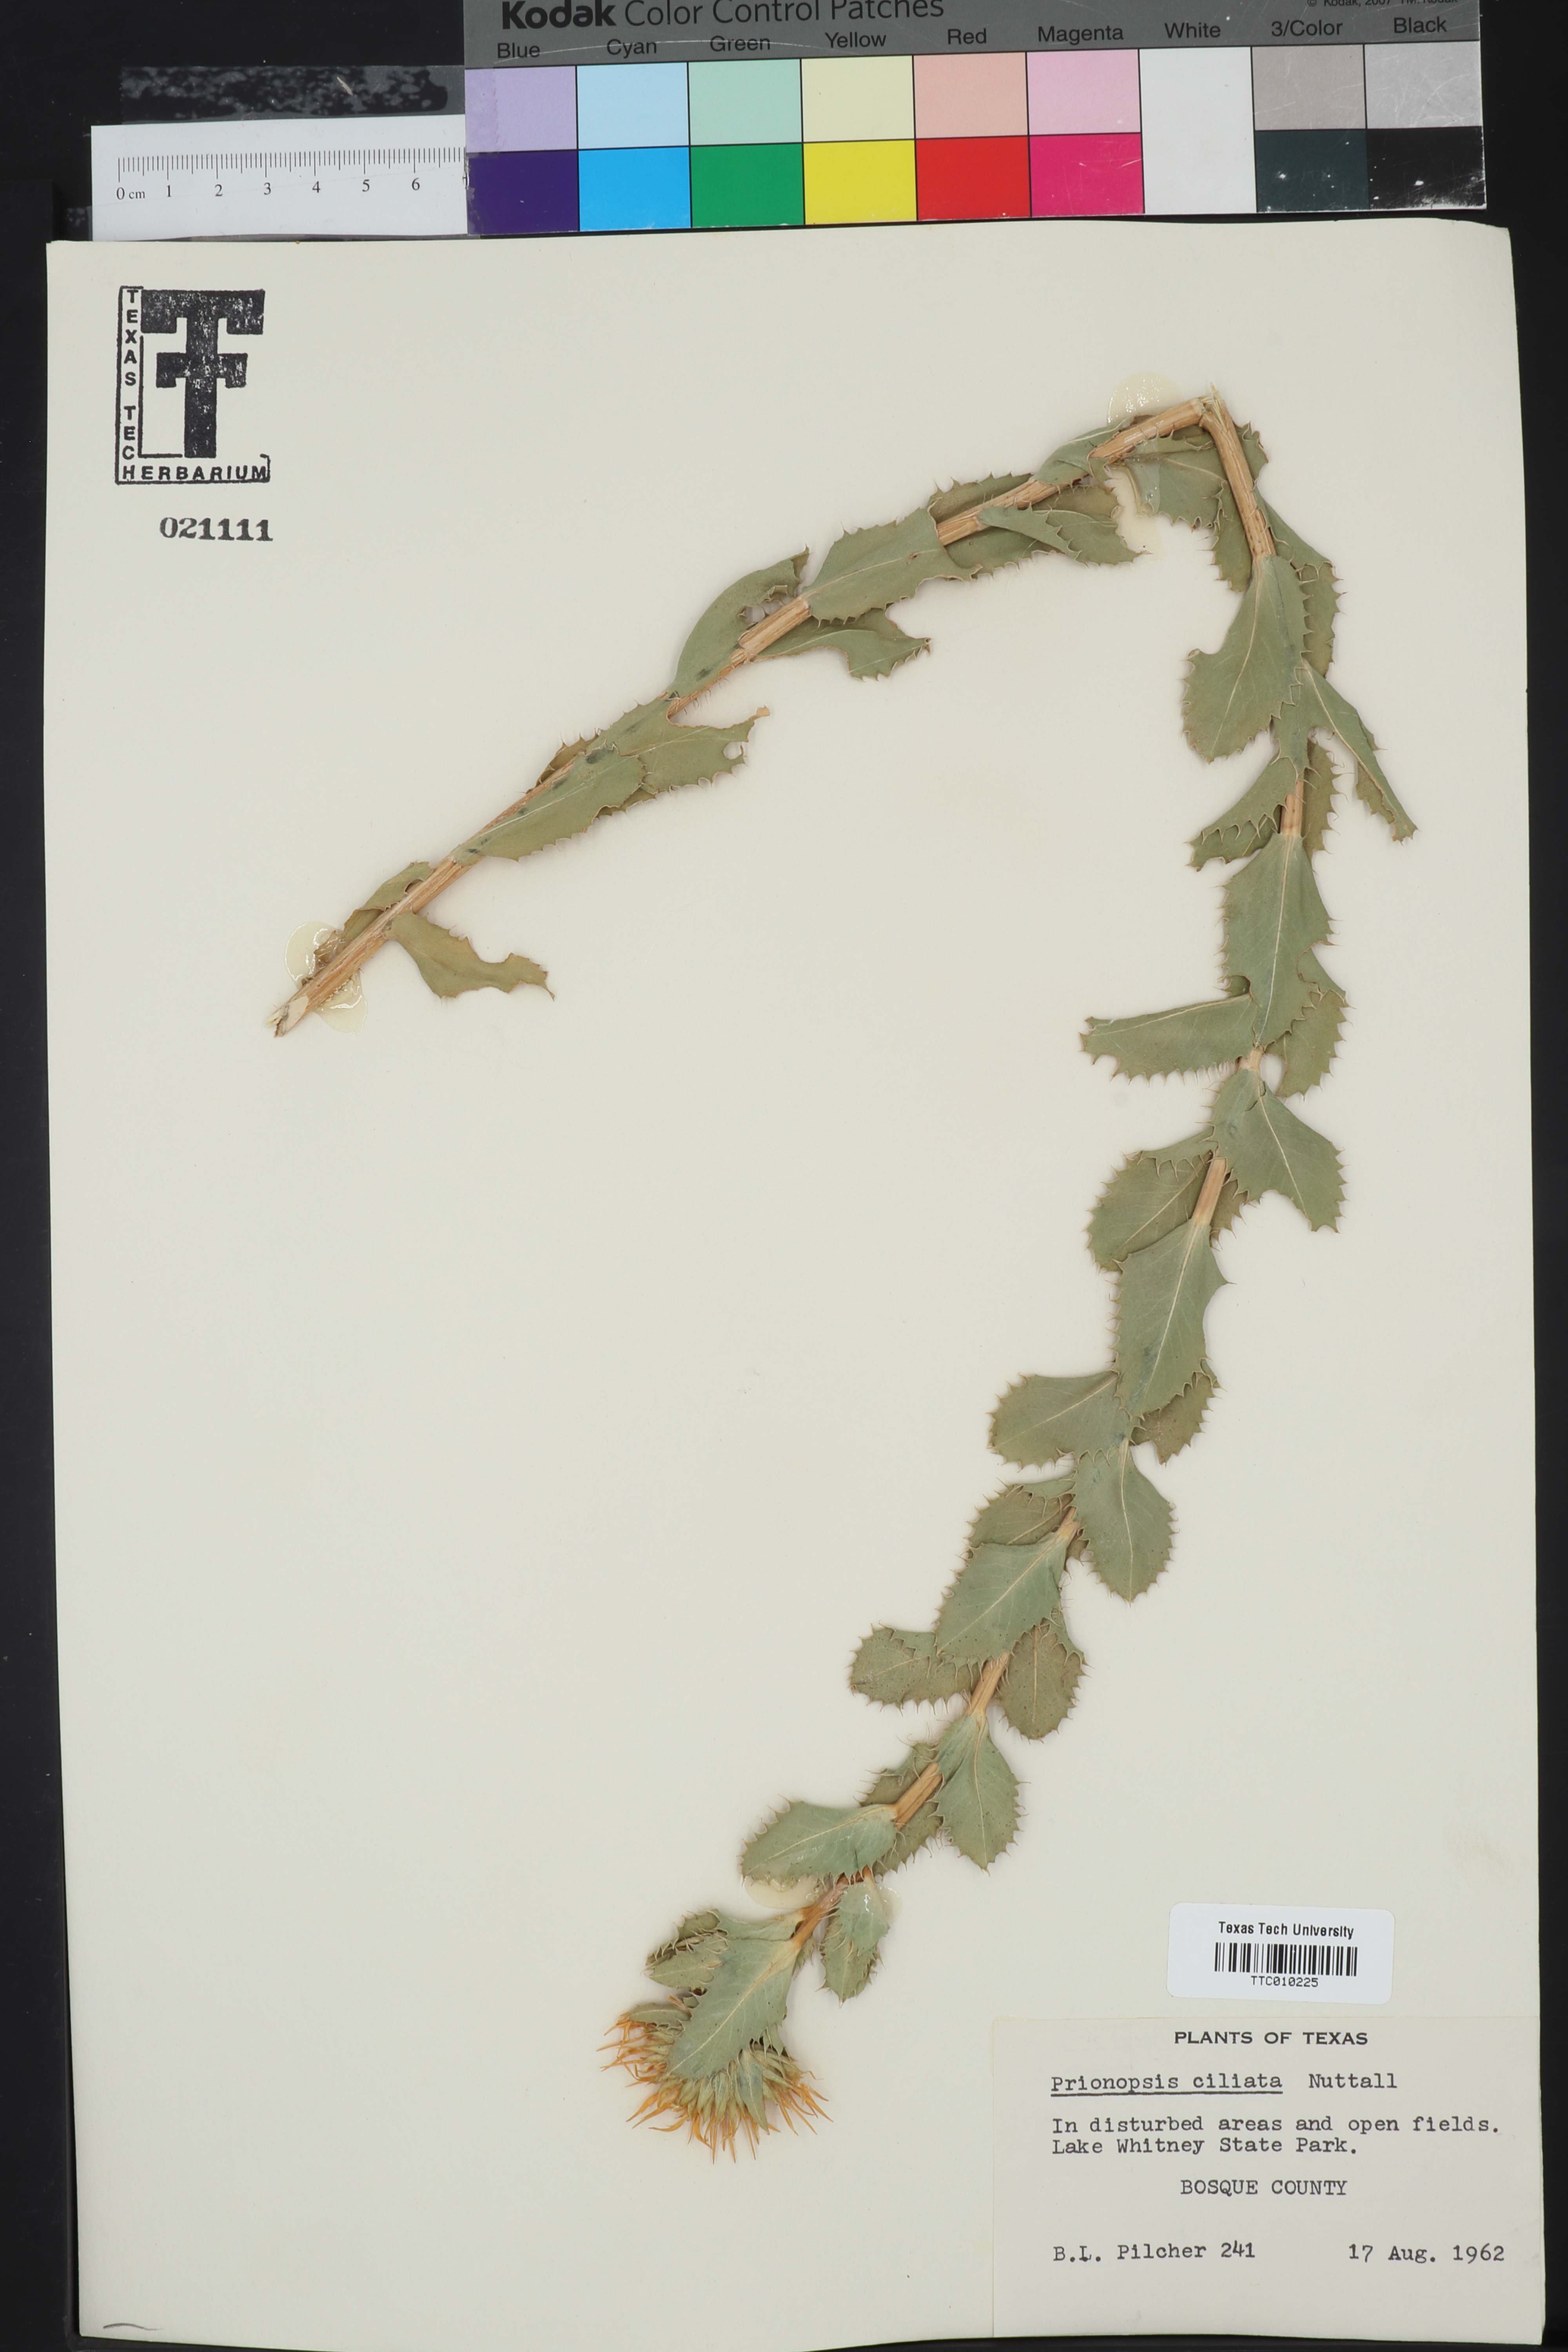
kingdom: Plantae
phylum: Tracheophyta
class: Magnoliopsida
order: Asterales
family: Asteraceae
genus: Grindelia
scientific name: Grindelia ciliata
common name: Goldenweed
